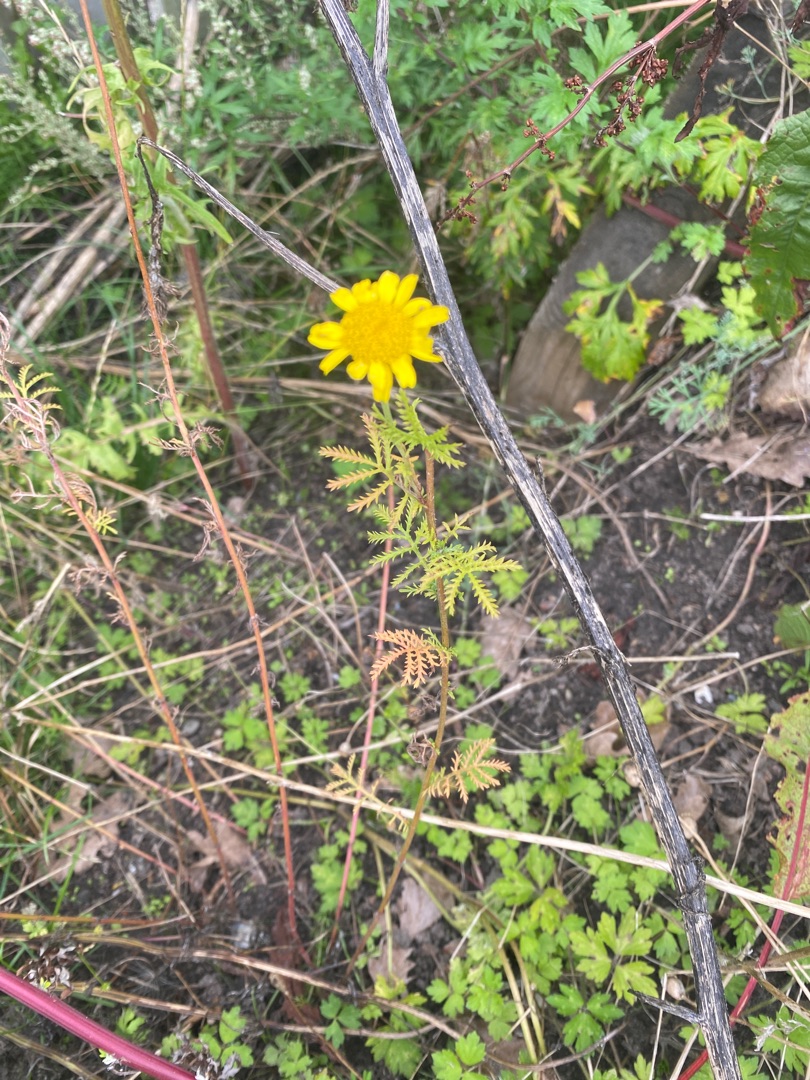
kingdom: Plantae
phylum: Tracheophyta
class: Magnoliopsida
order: Asterales
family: Asteraceae
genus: Cota
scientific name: Cota tinctoria
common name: Farve-gåseurt
